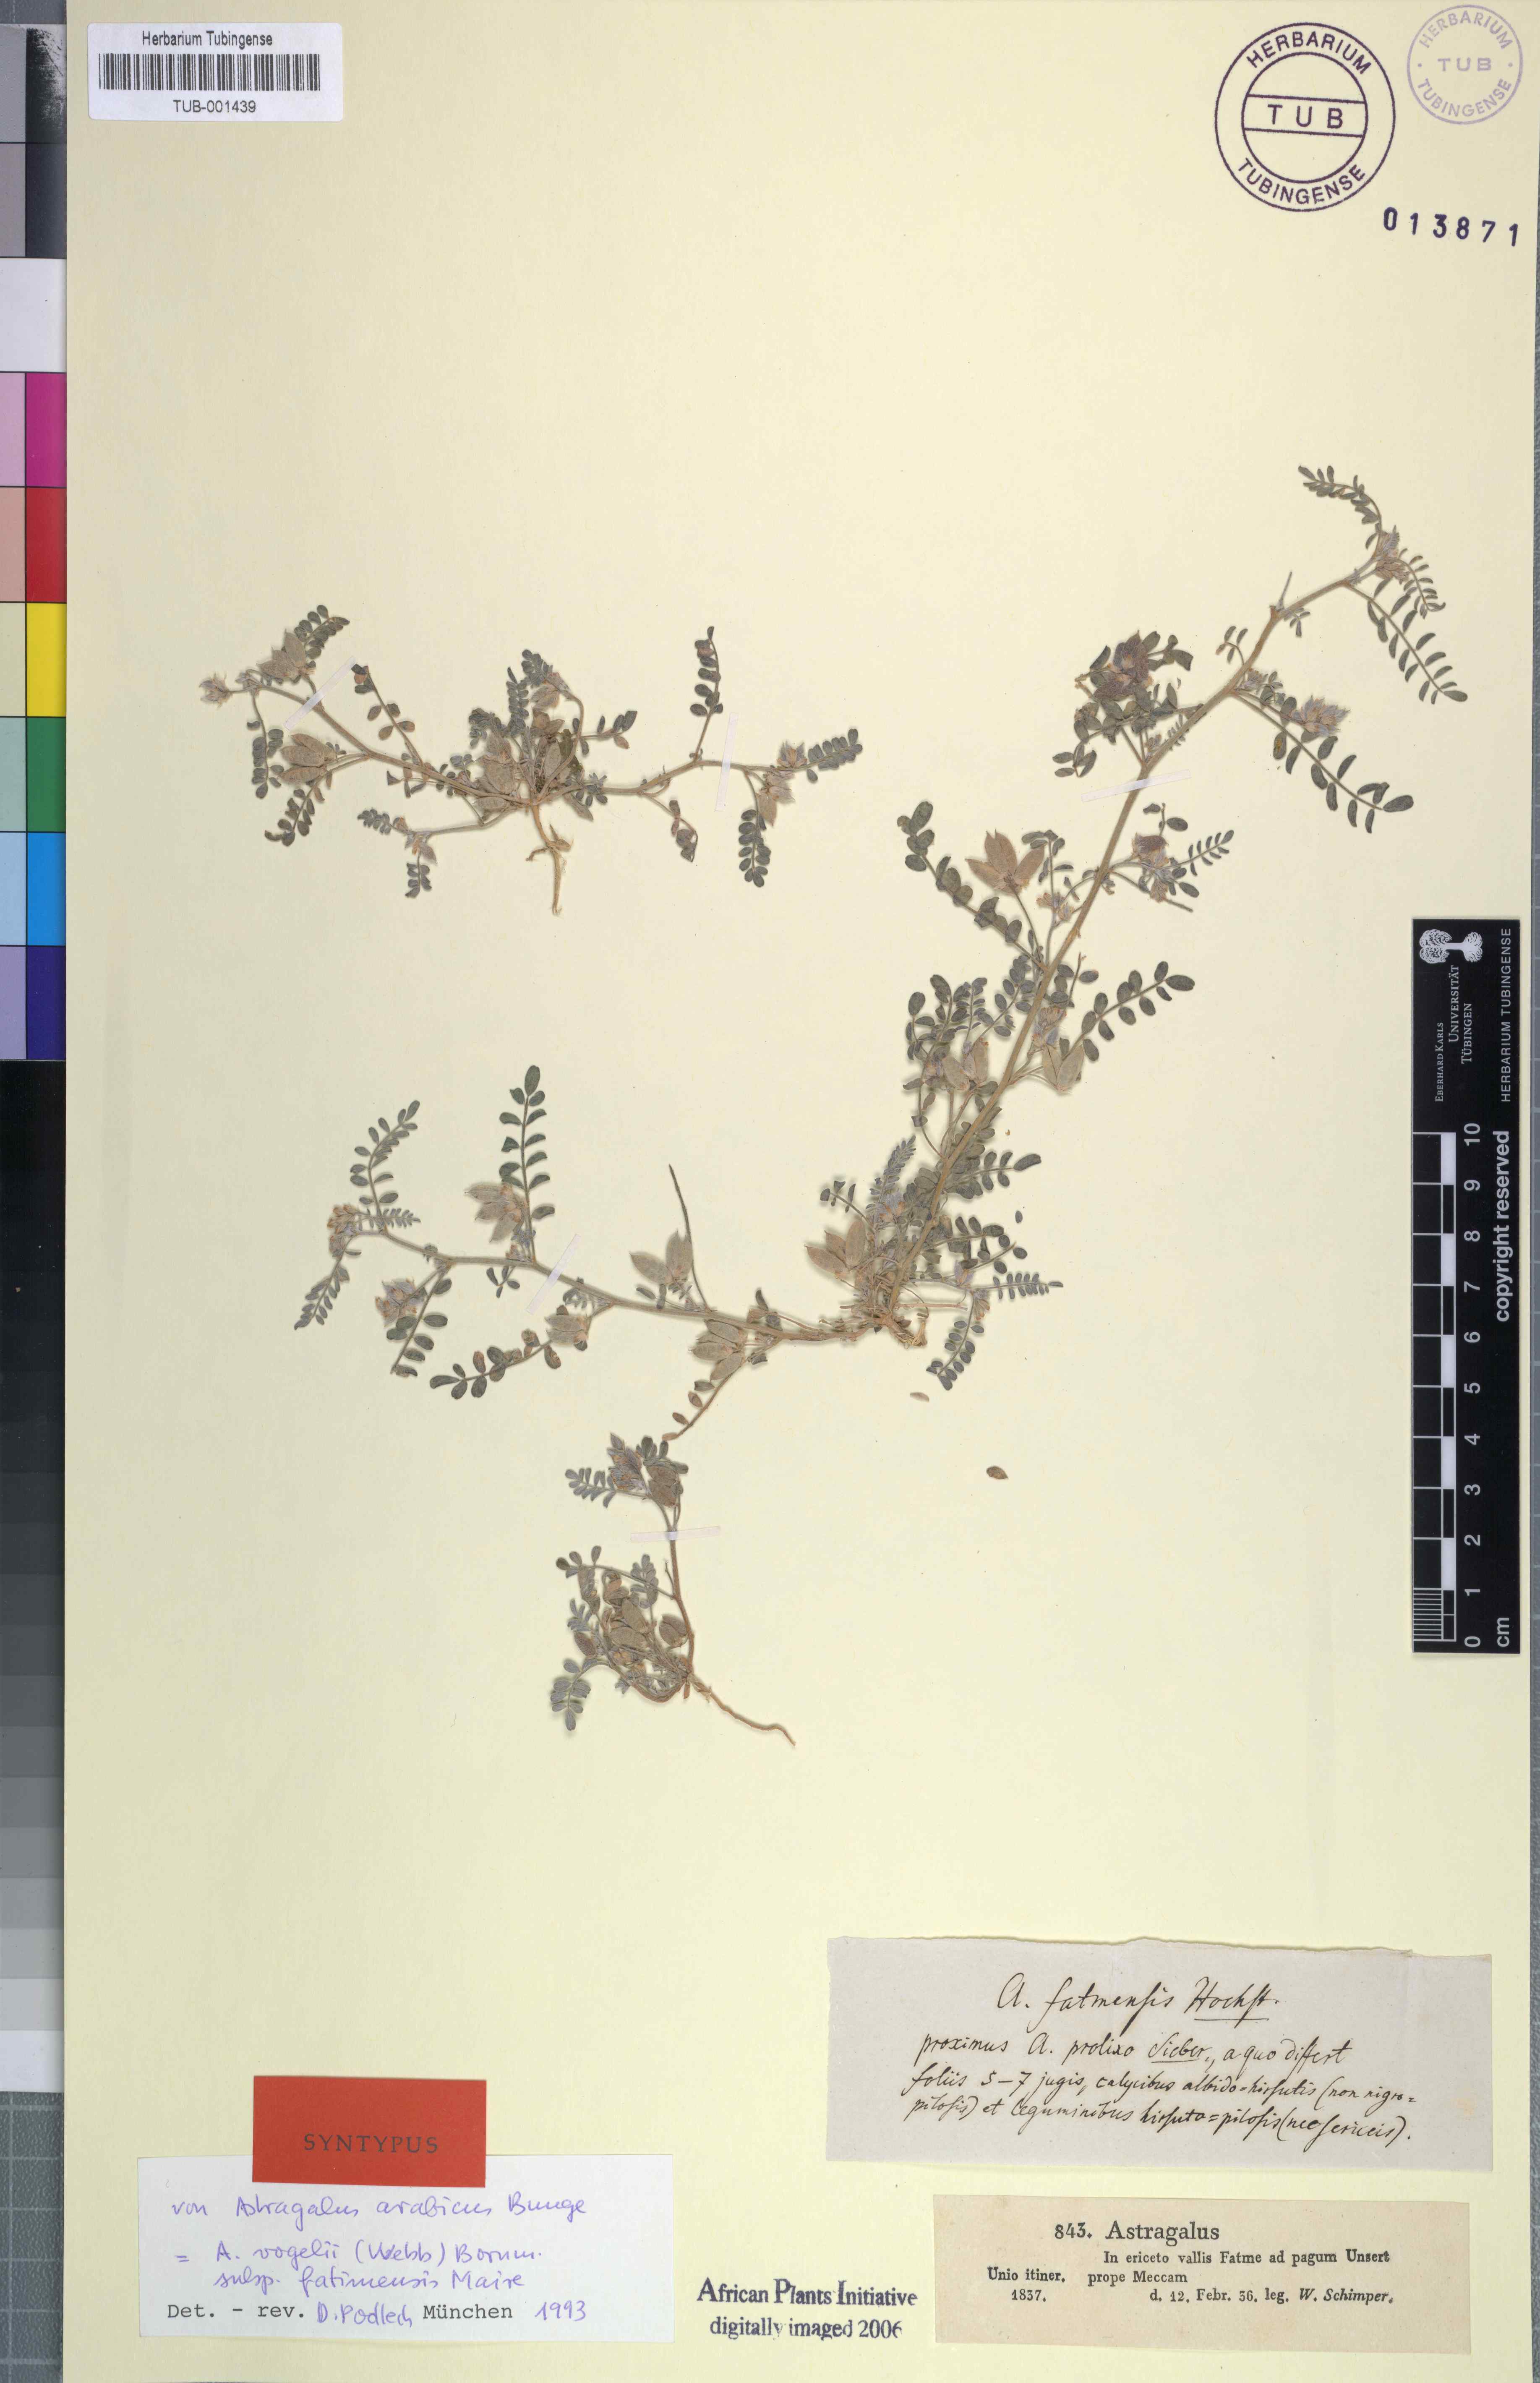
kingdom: Plantae
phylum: Tracheophyta
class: Magnoliopsida
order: Fabales
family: Fabaceae
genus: Astragalus
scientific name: Astragalus vogelii
